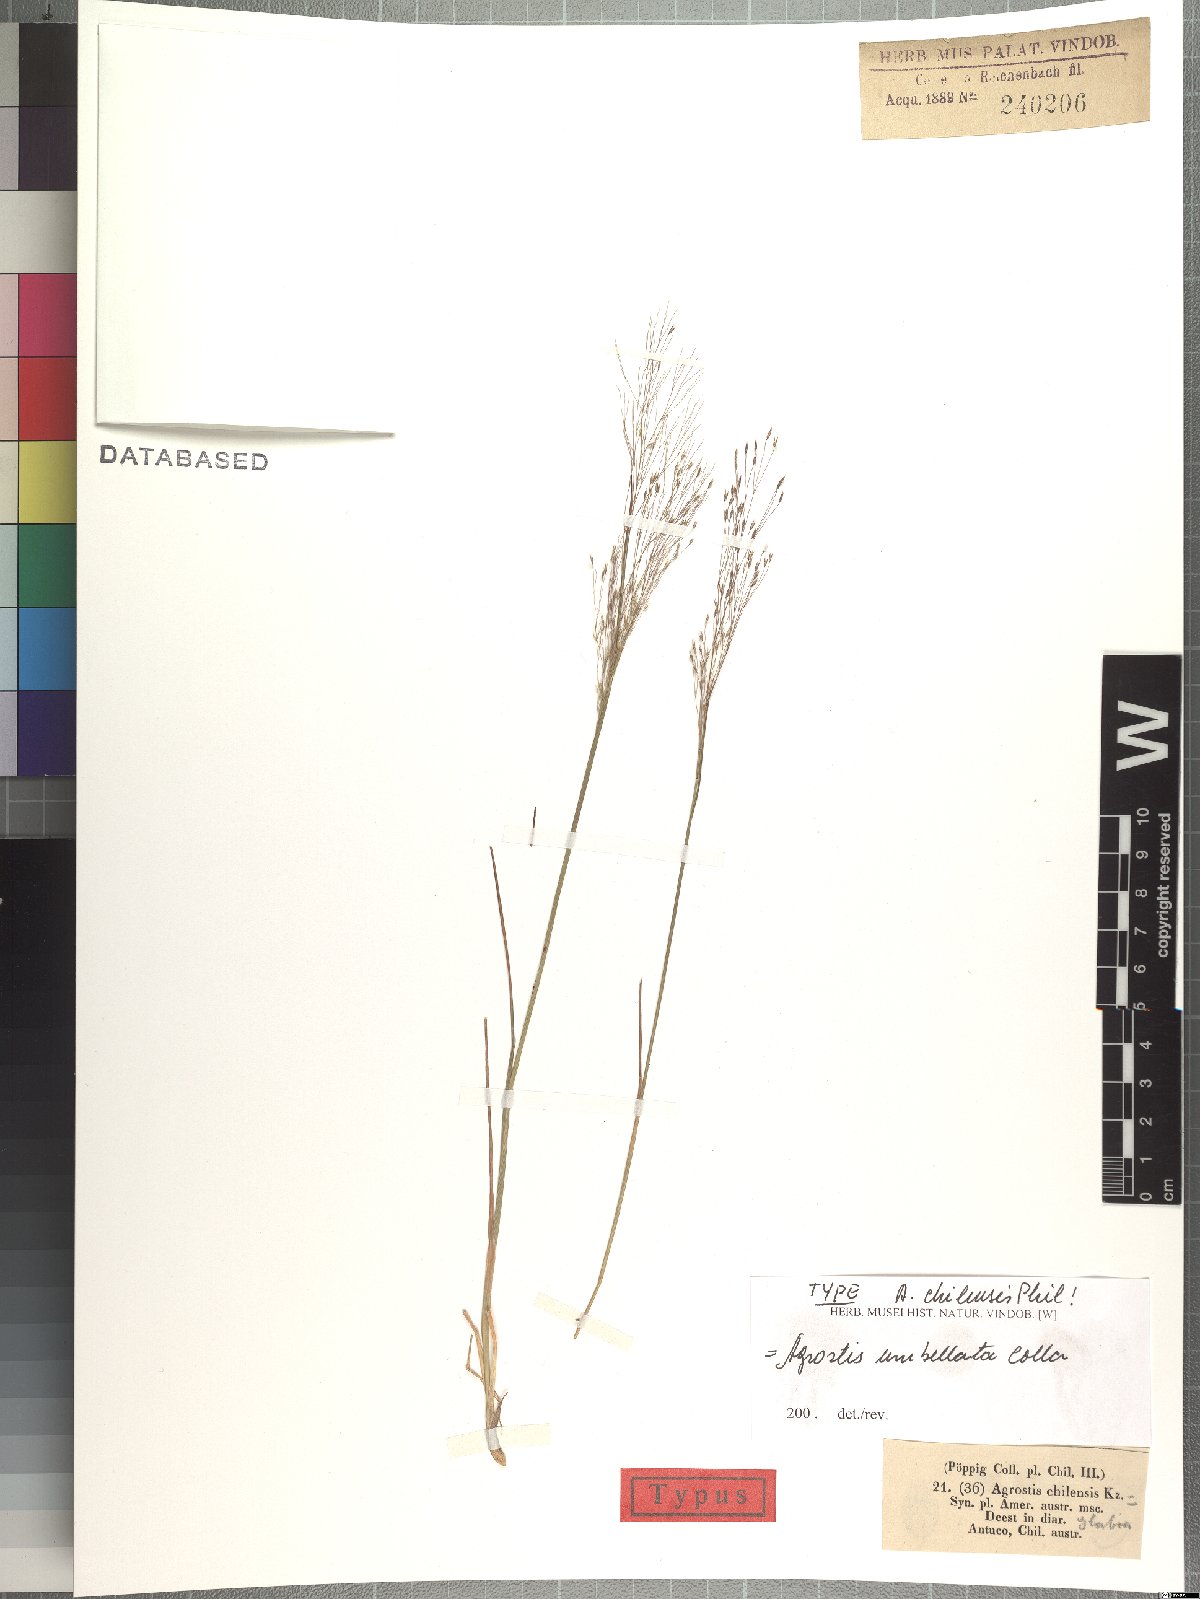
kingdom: Plantae
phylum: Tracheophyta
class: Liliopsida
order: Poales
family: Poaceae
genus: Agrostis
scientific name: Agrostis umbellata
